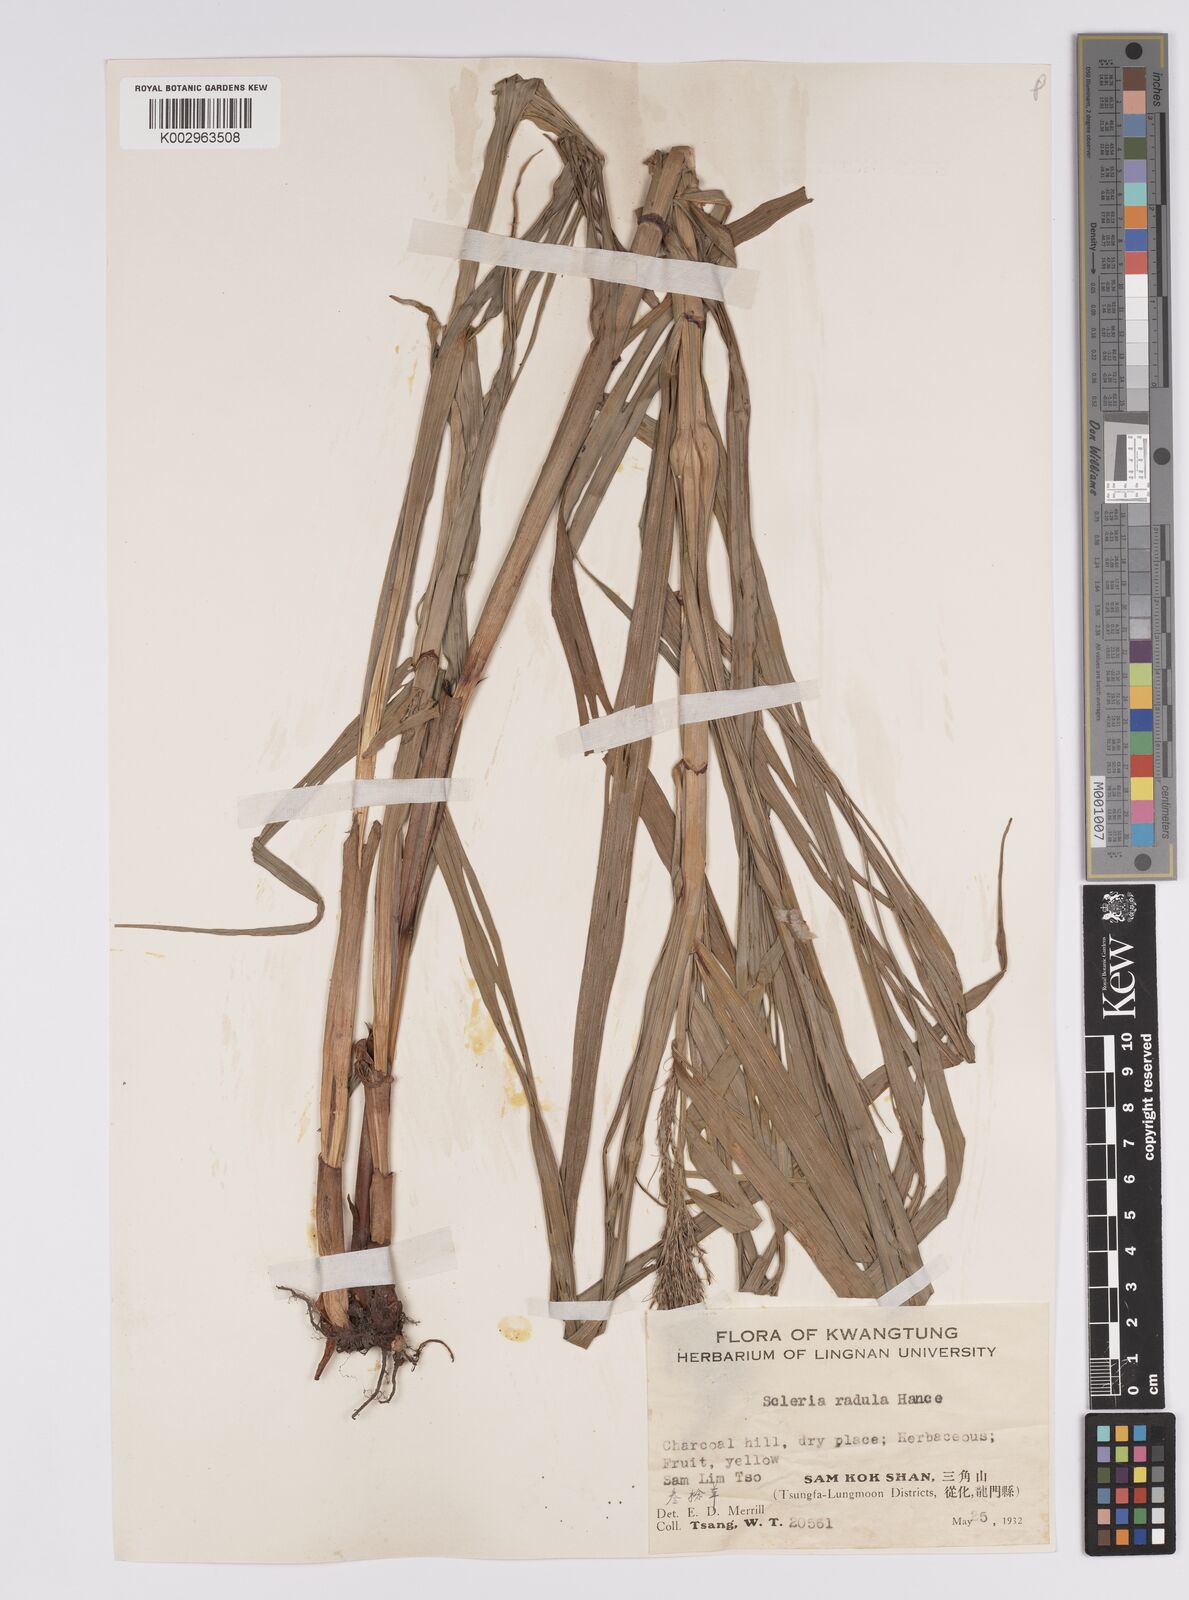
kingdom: Plantae
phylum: Tracheophyta
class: Liliopsida
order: Poales
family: Cyperaceae
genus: Scleria
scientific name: Scleria radula
